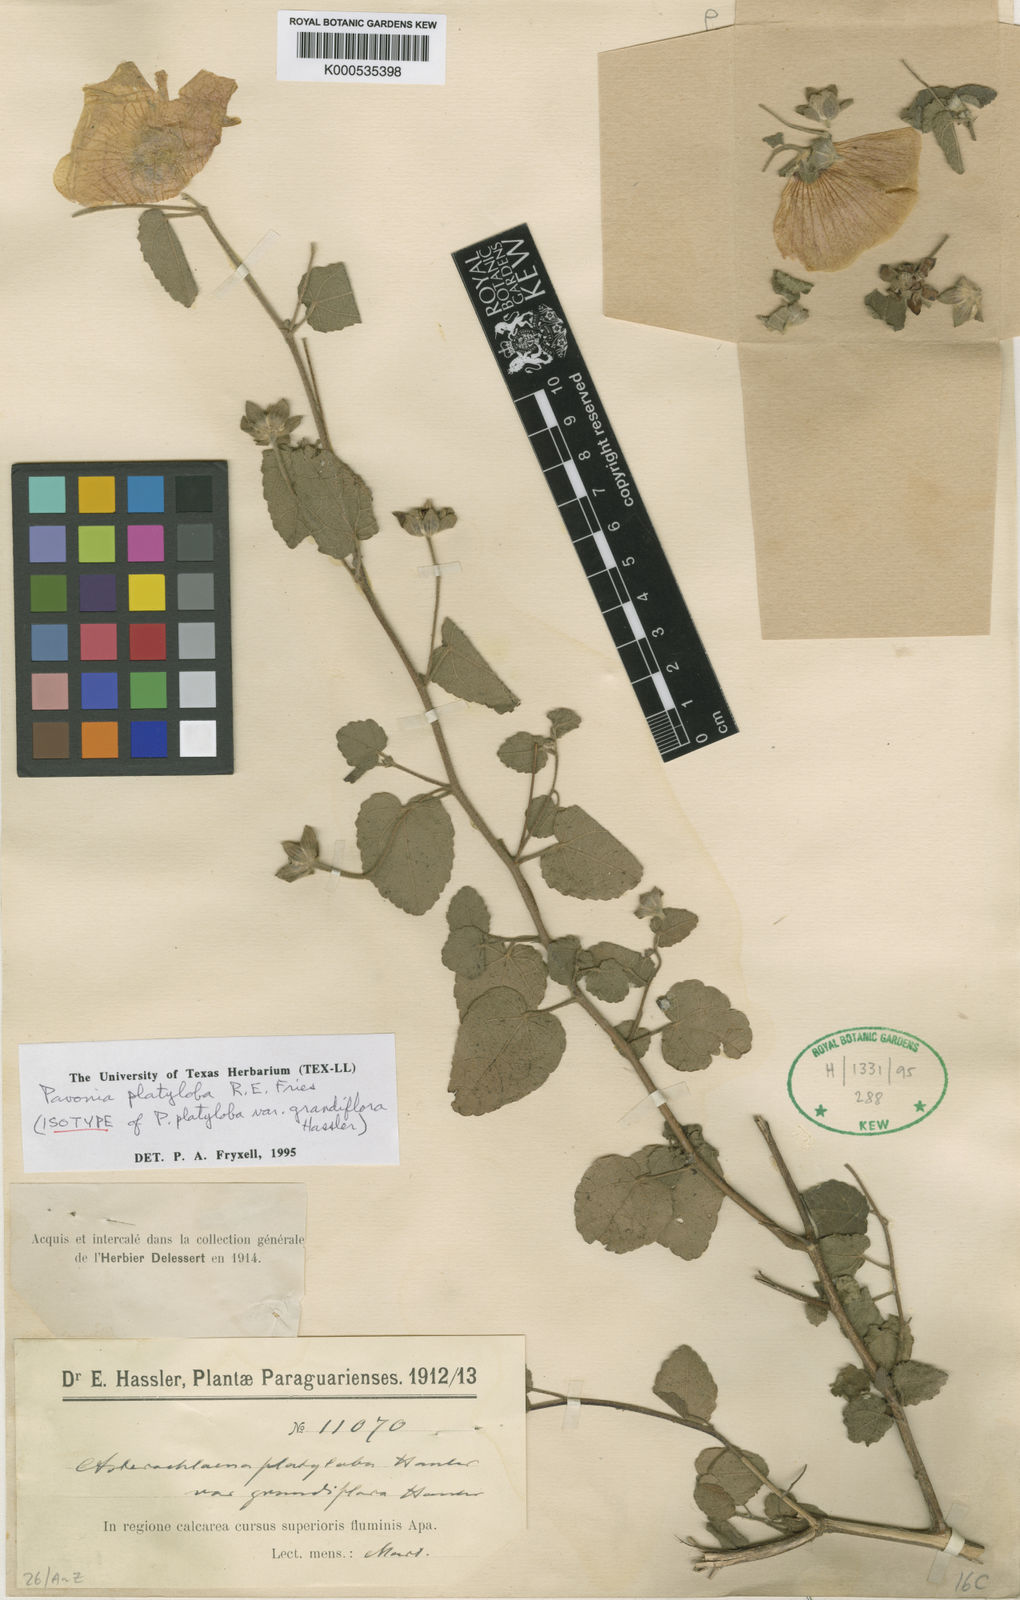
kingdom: Plantae
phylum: Tracheophyta
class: Magnoliopsida
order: Malvales
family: Malvaceae
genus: Pavonia
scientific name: Pavonia platyloba
